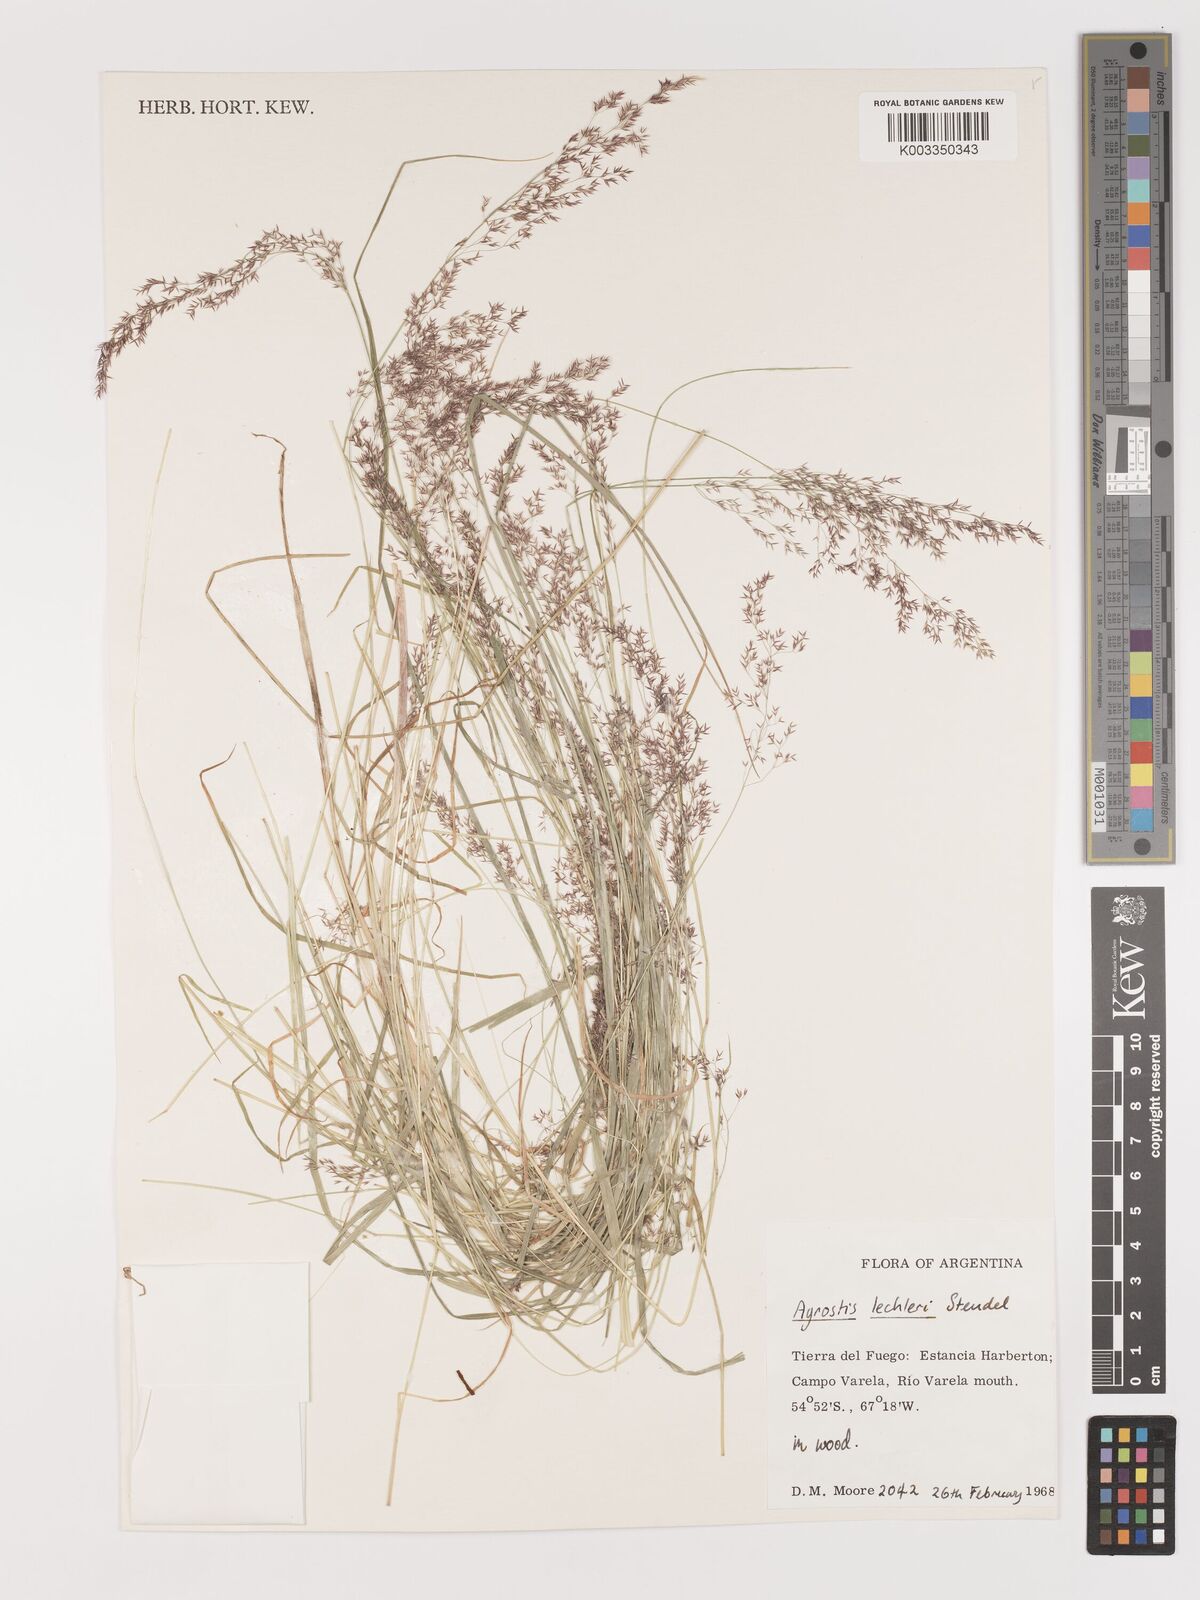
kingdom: Plantae
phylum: Tracheophyta
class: Liliopsida
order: Poales
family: Poaceae
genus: Agrostis
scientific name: Agrostis
